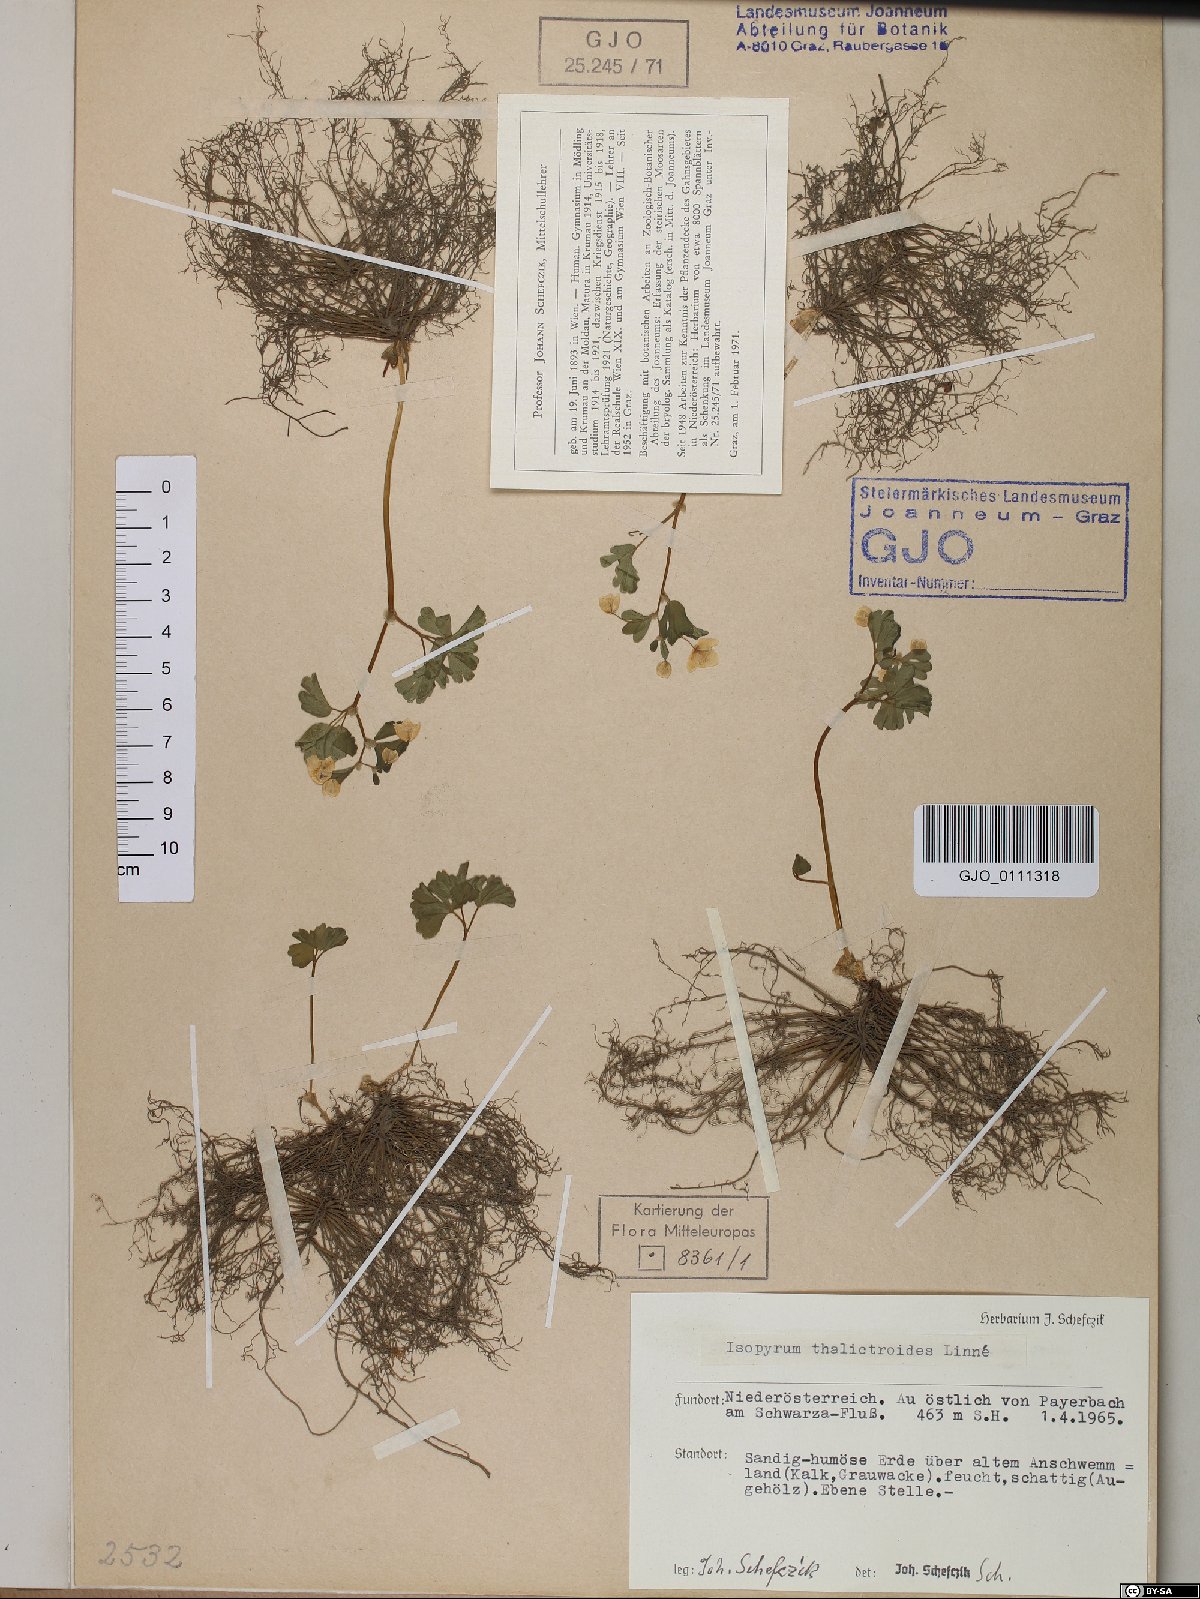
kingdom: Plantae
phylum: Tracheophyta
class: Magnoliopsida
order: Ranunculales
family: Ranunculaceae
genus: Isopyrum
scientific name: Isopyrum thalictroides
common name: Isopyrum
